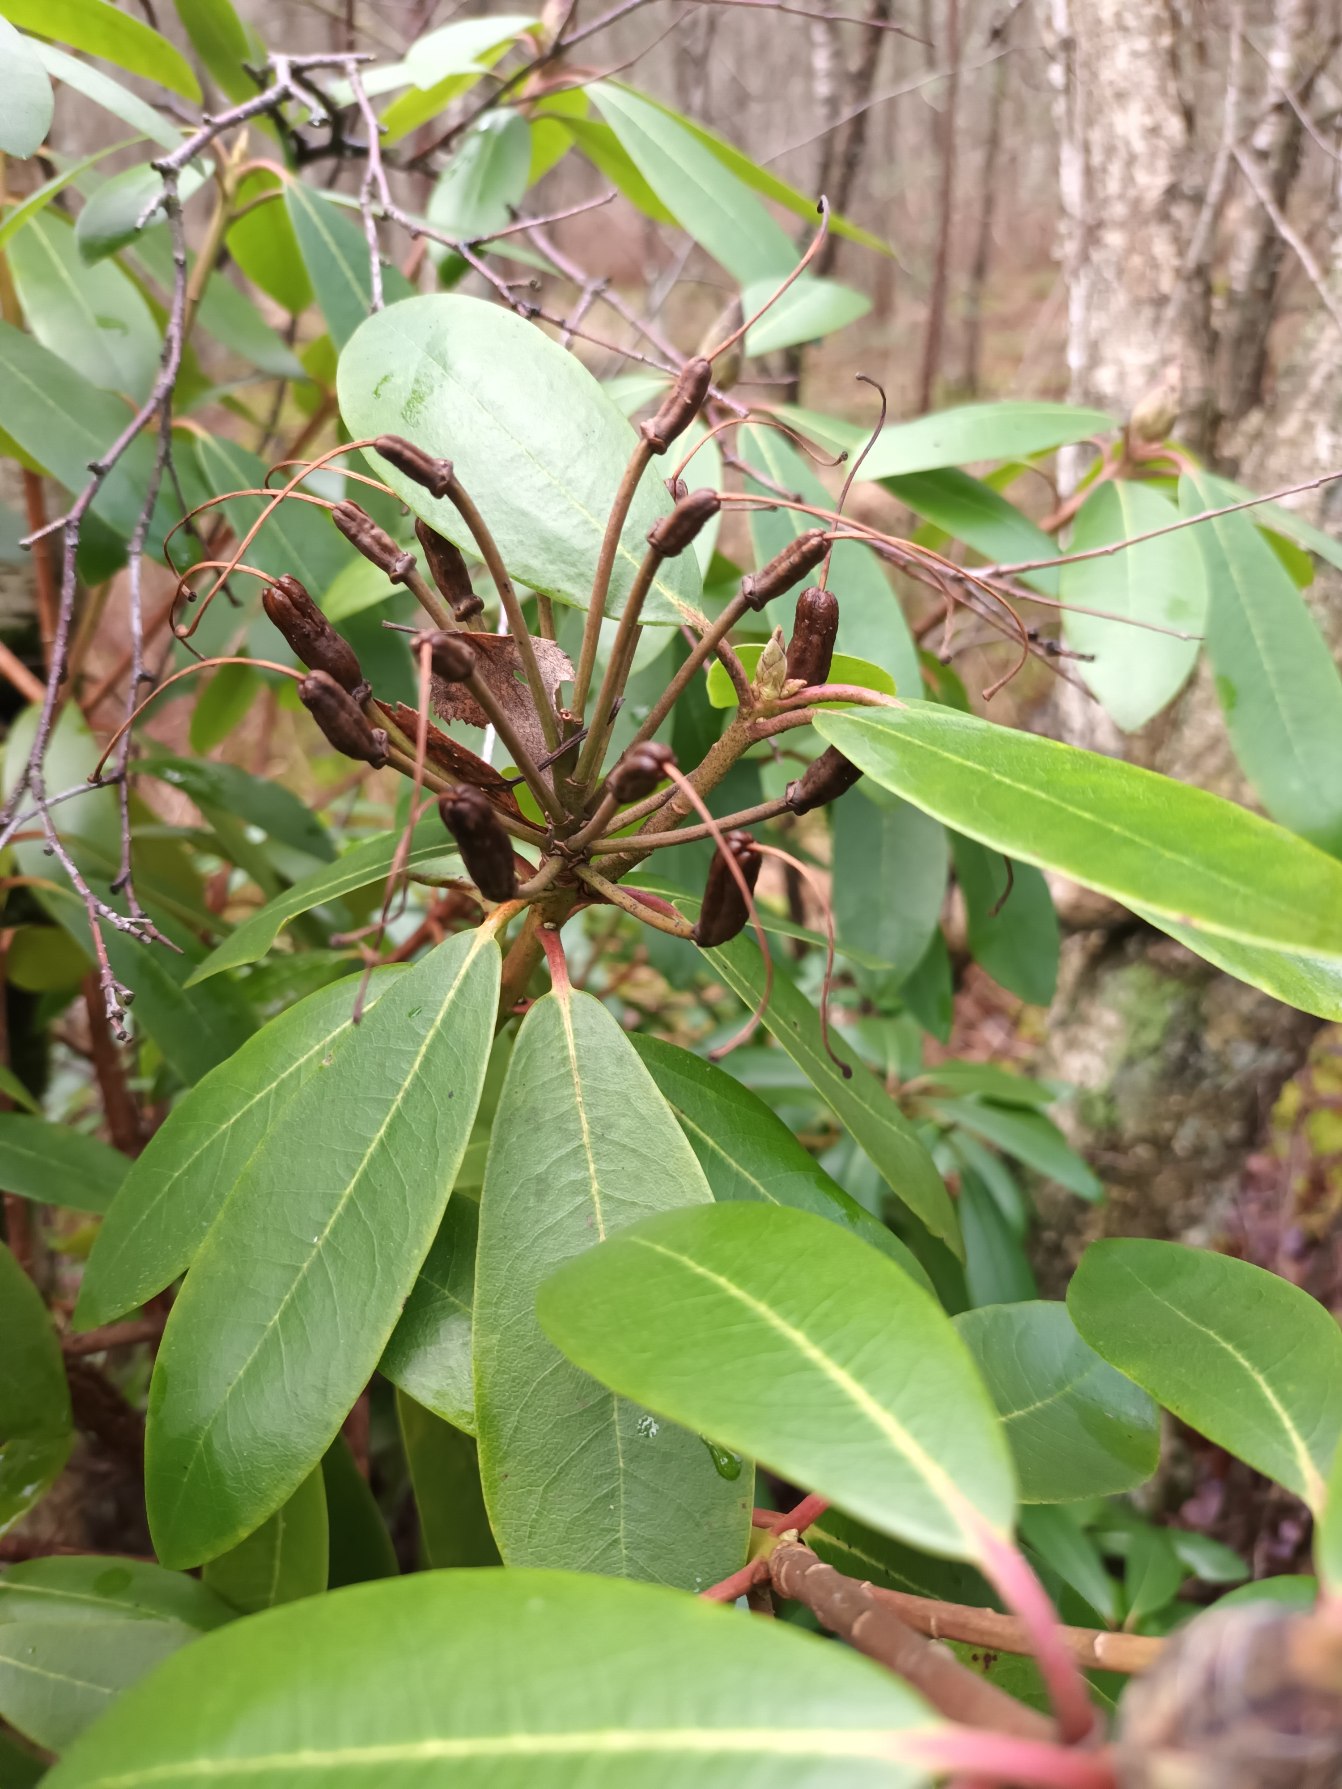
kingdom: Plantae
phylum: Tracheophyta
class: Magnoliopsida
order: Ericales
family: Ericaceae
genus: Rhododendron
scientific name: Rhododendron
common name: Rhododendronslægten
